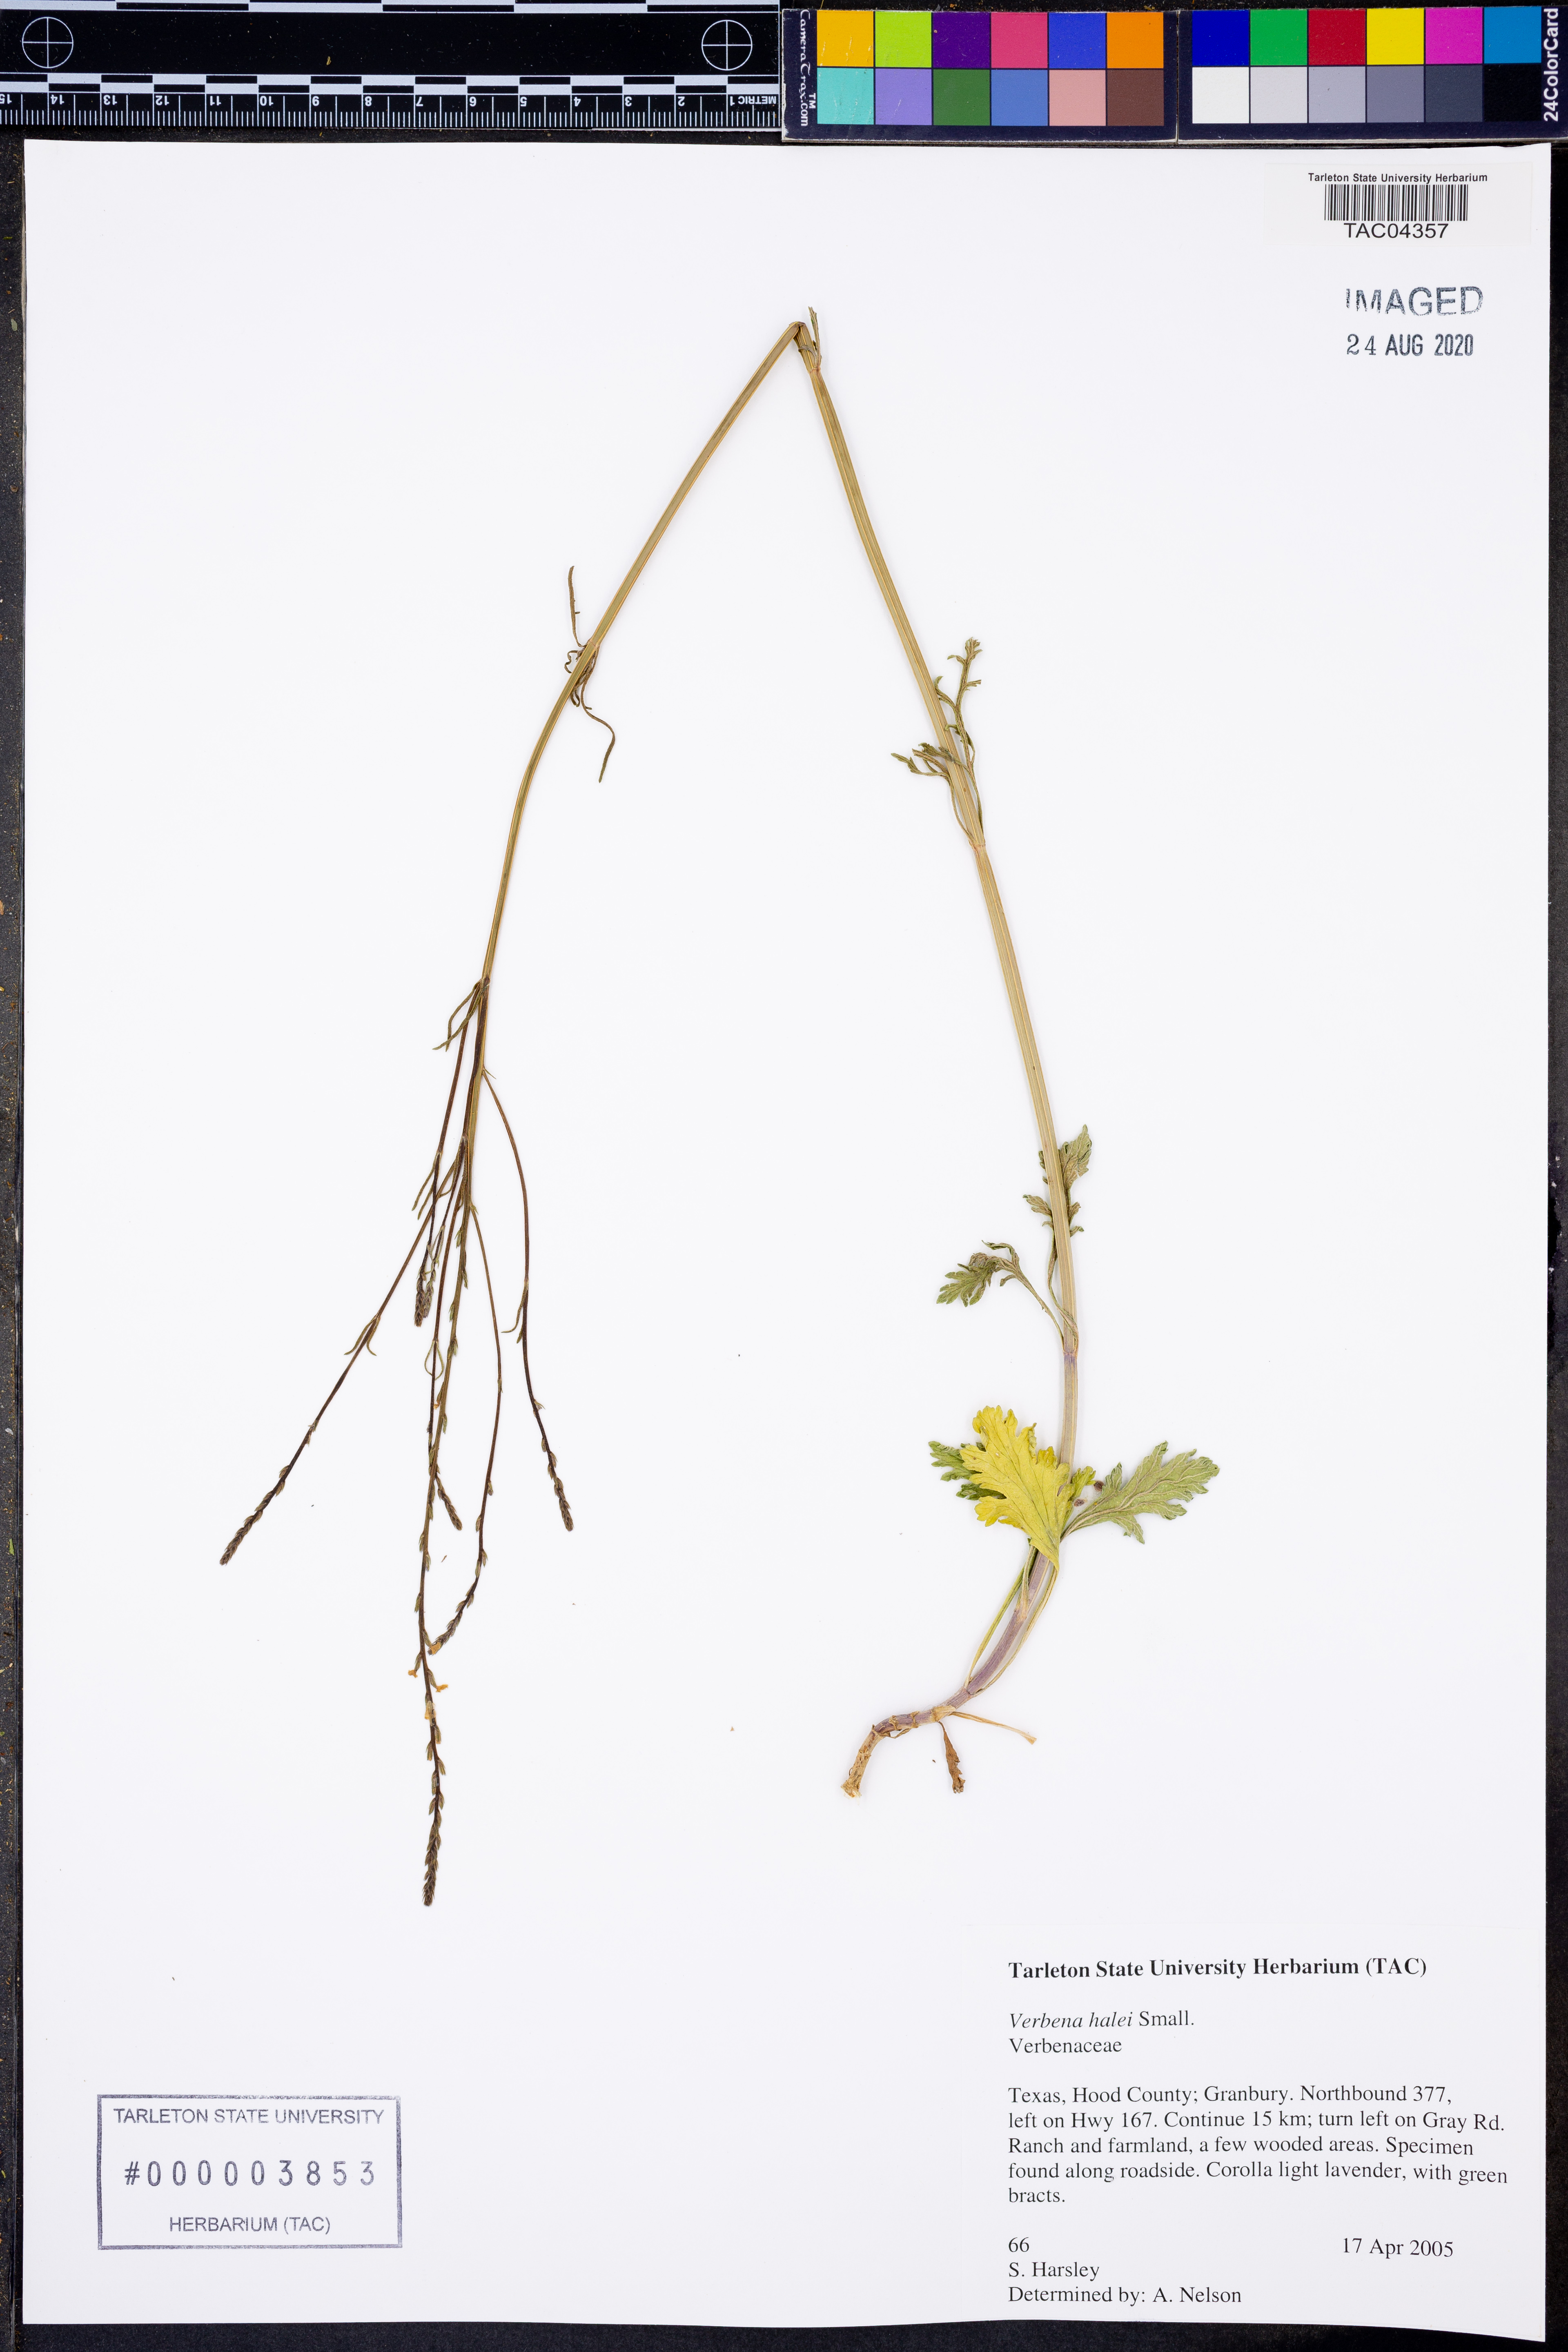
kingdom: Plantae
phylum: Tracheophyta
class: Magnoliopsida
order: Lamiales
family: Verbenaceae
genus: Verbena
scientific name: Verbena halei
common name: Texas vervain
